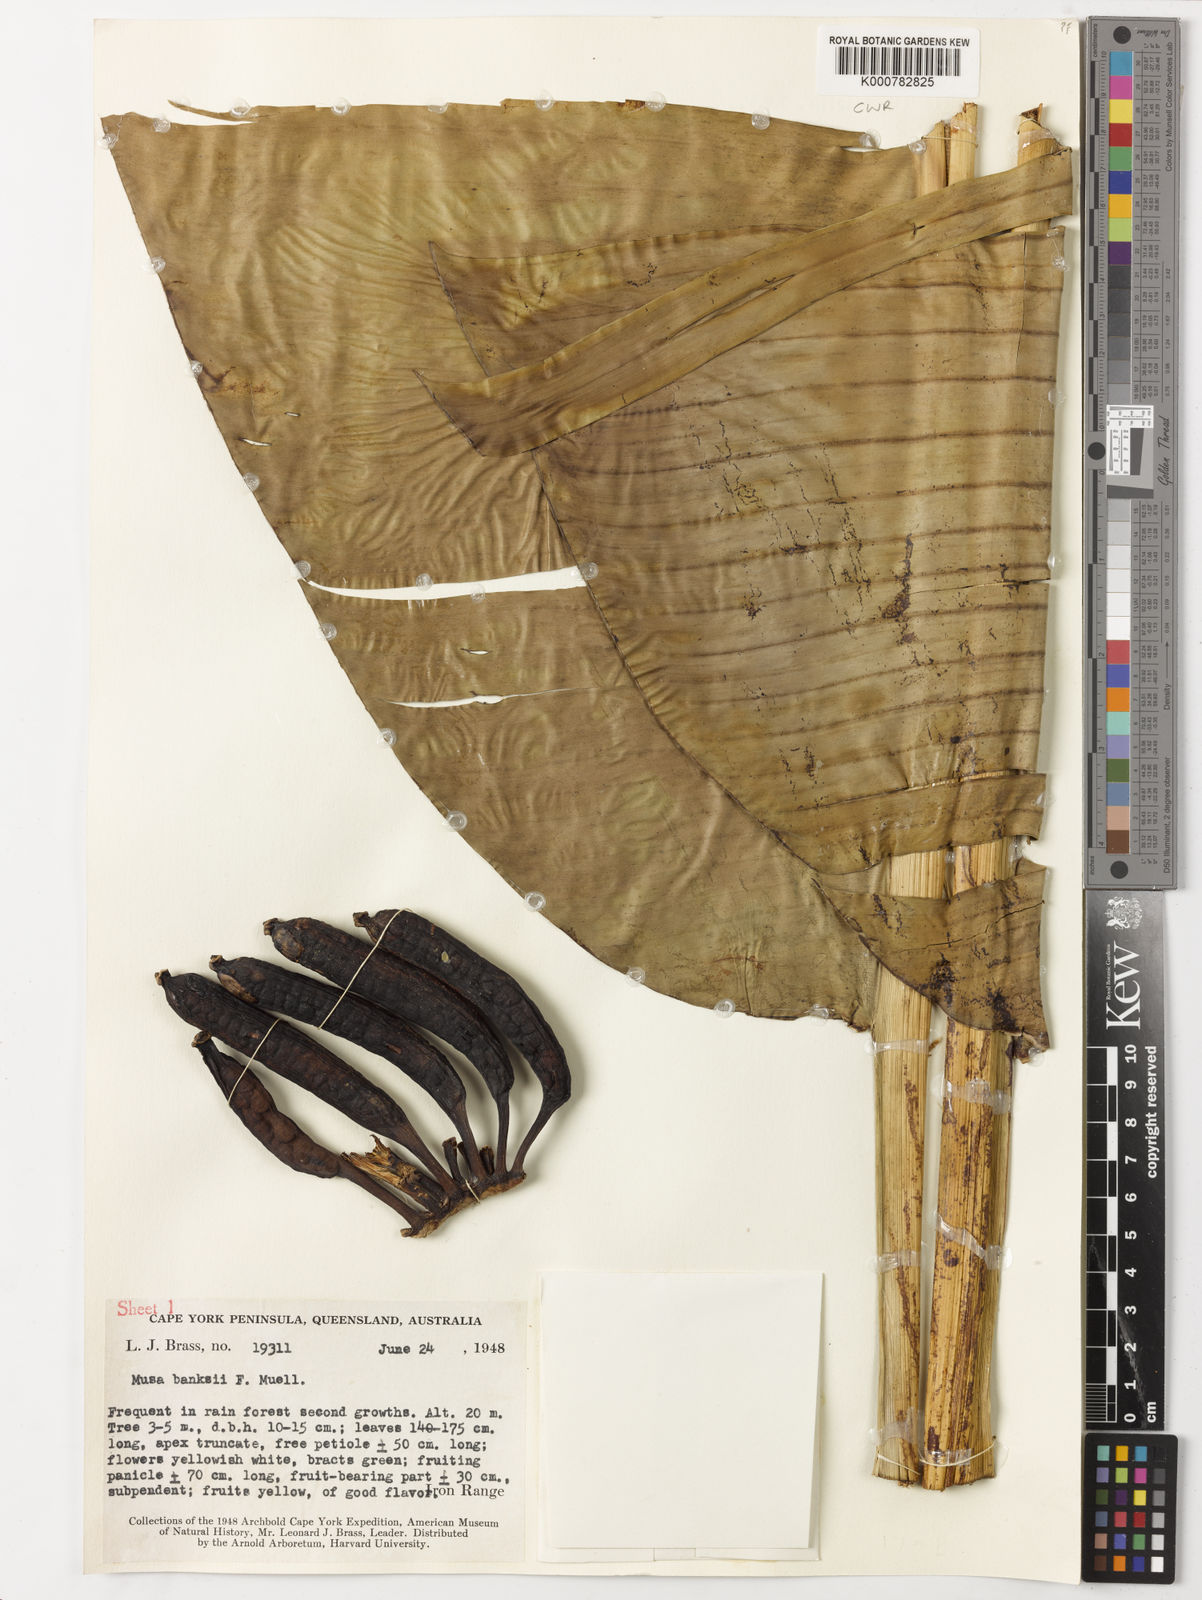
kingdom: Plantae
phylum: Tracheophyta
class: Liliopsida
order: Zingiberales
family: Musaceae
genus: Musa
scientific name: Musa banksii
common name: Maroon-stemmed banana
